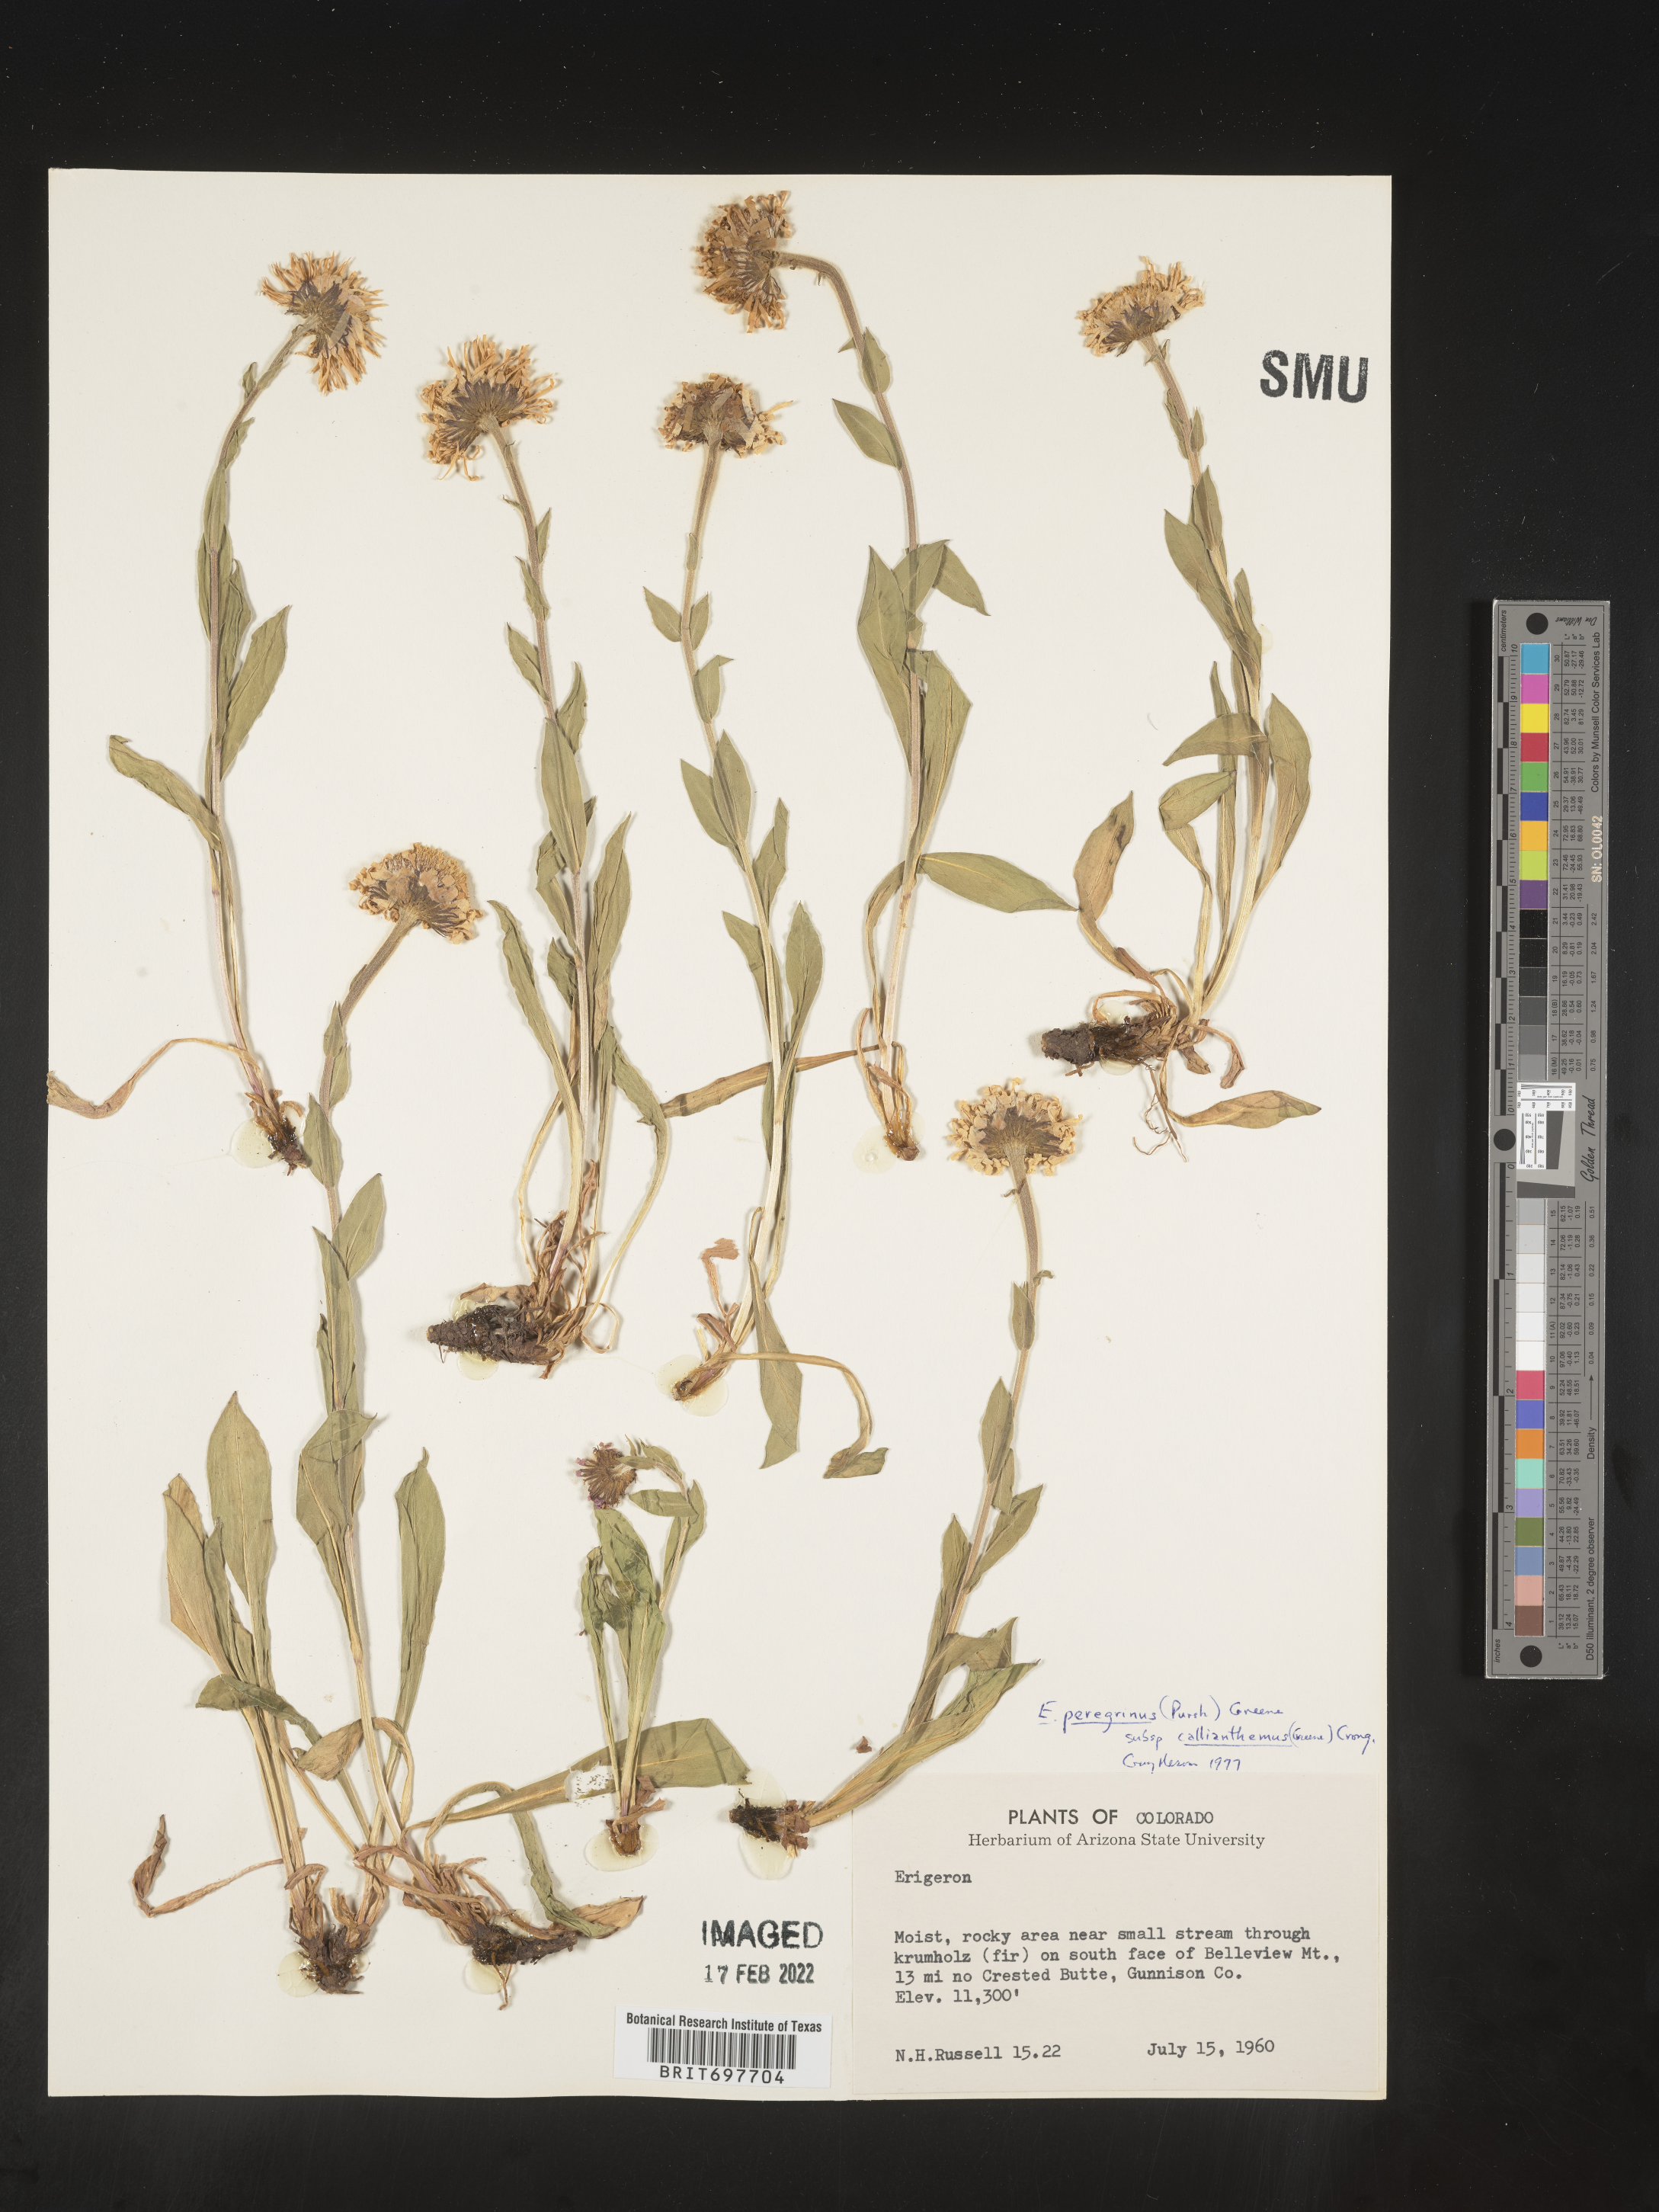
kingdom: Plantae
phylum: Tracheophyta
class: Magnoliopsida
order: Asterales
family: Asteraceae
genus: Erigeron
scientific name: Erigeron glacialis
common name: Subalpine fleabane
